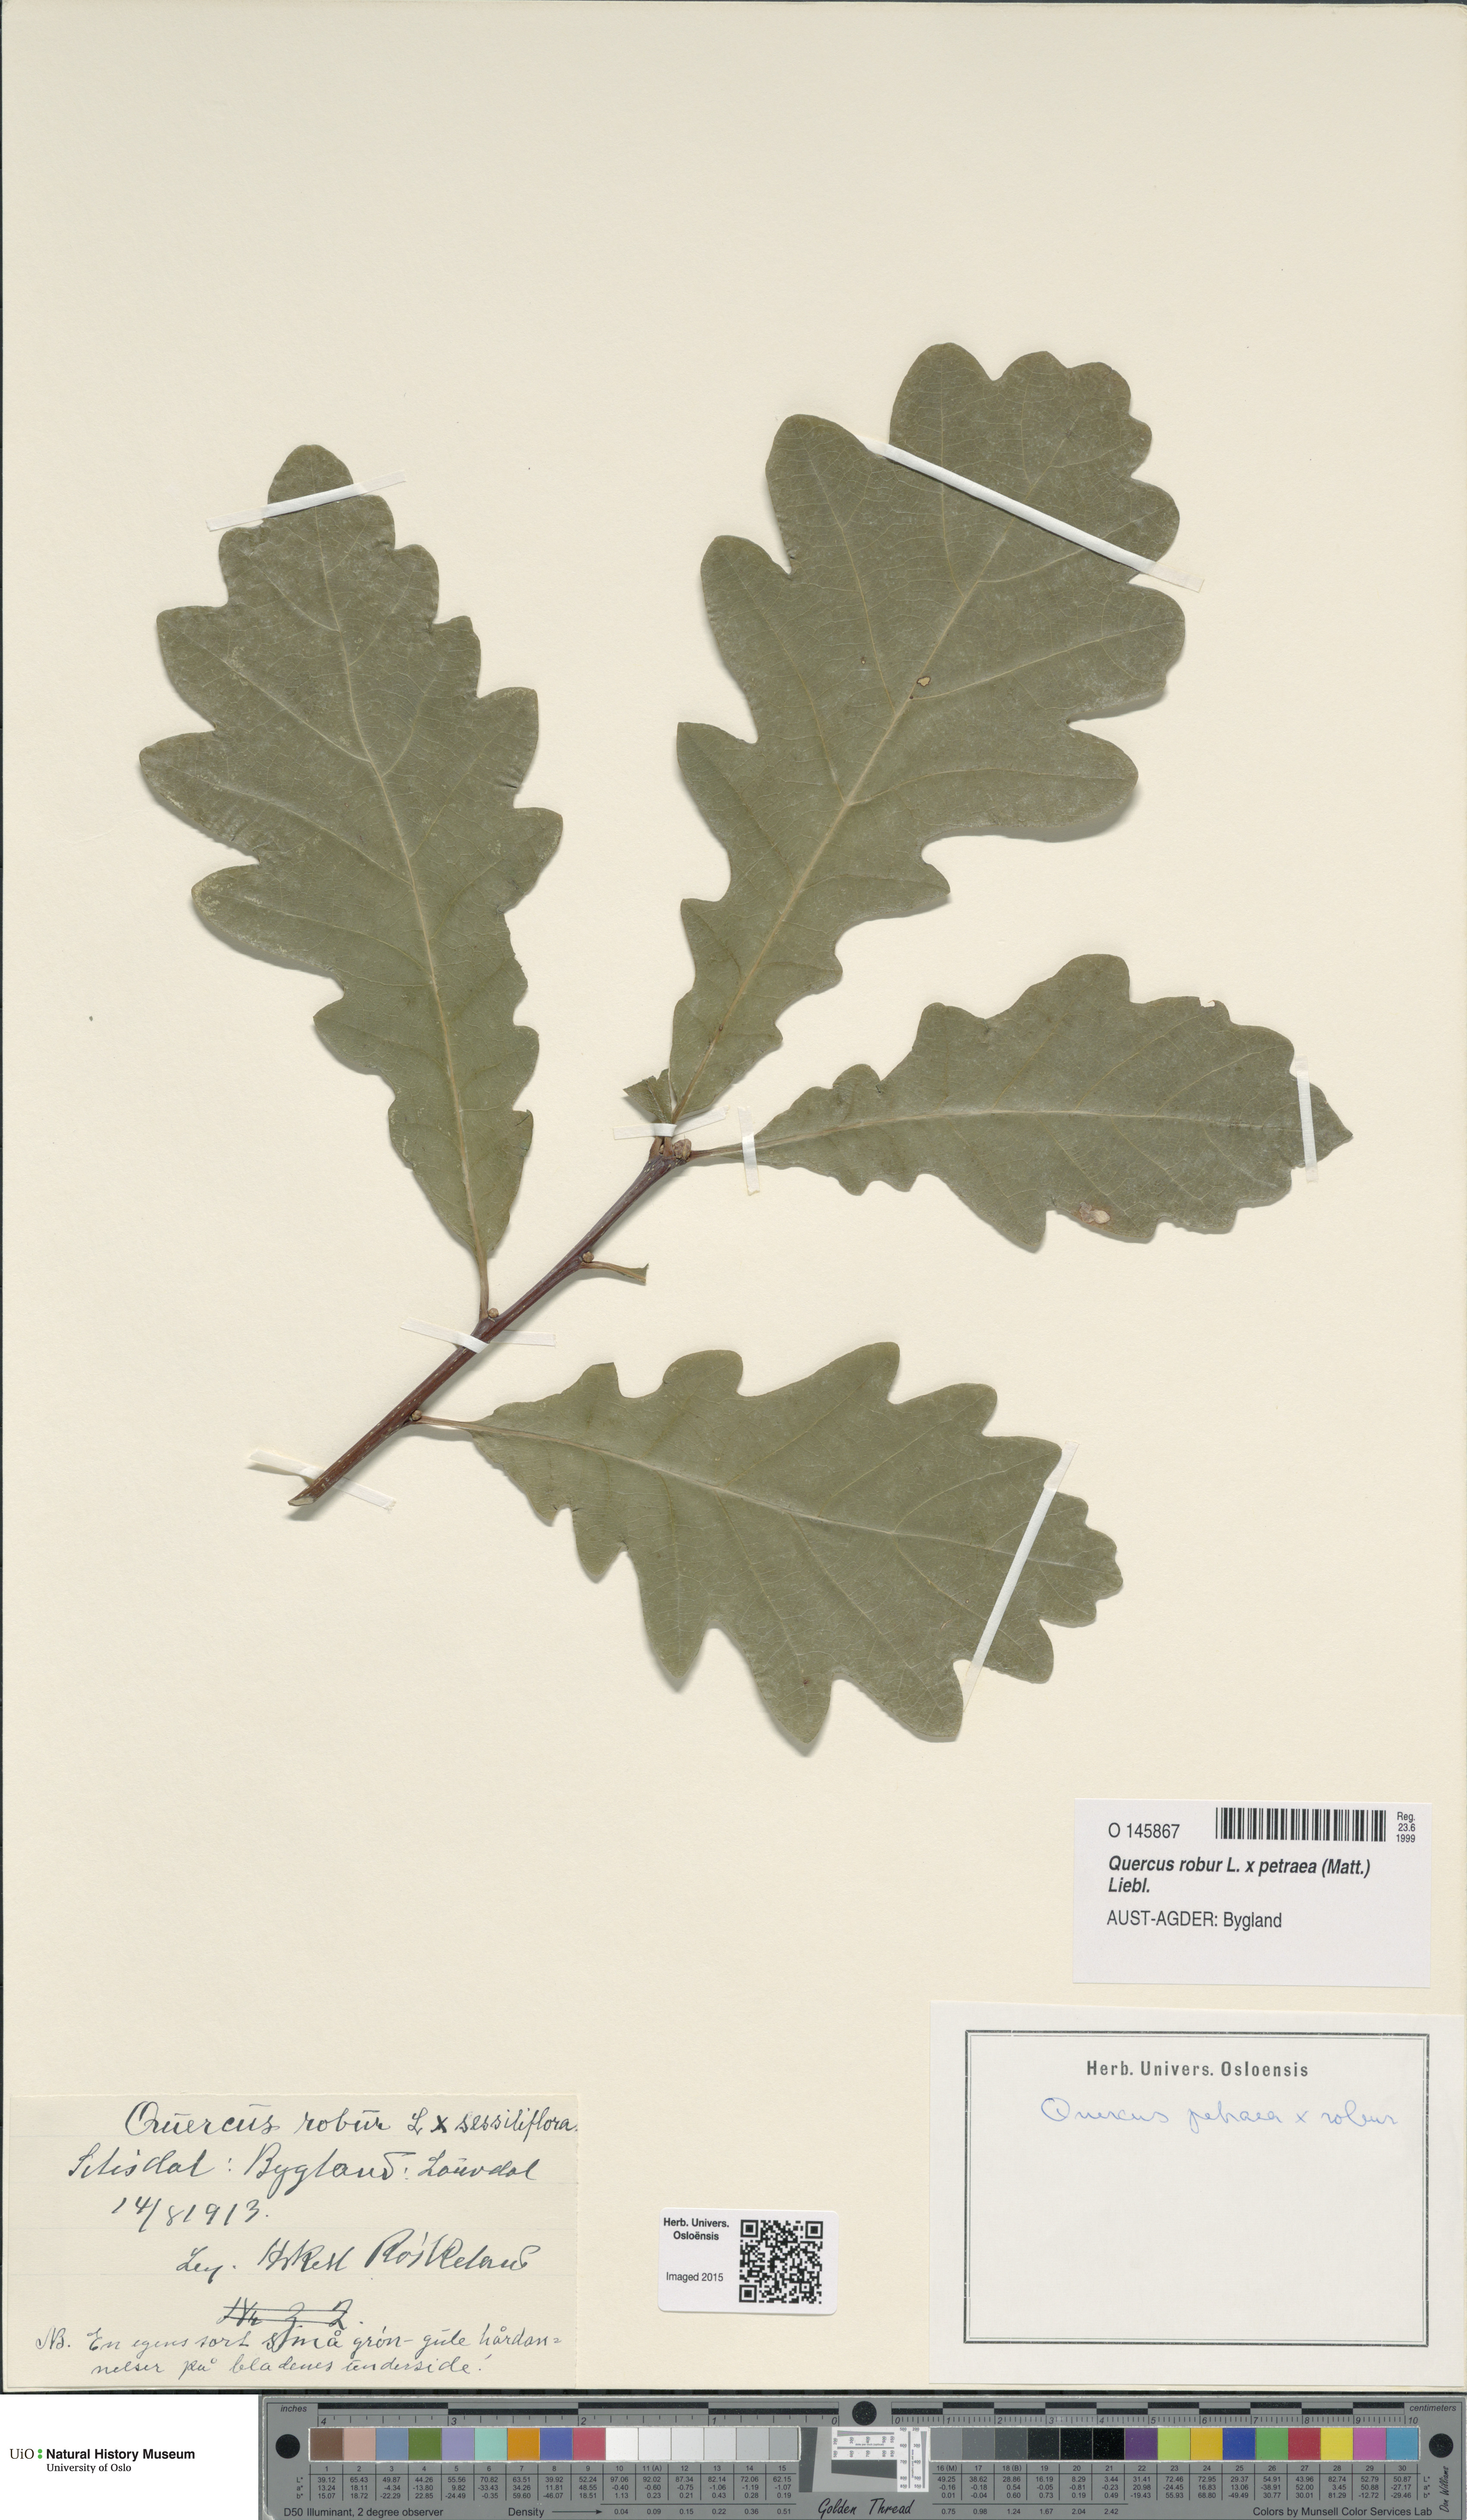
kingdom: Plantae
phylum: Tracheophyta
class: Magnoliopsida
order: Fagales
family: Fagaceae
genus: Quercus
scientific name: Quercus
